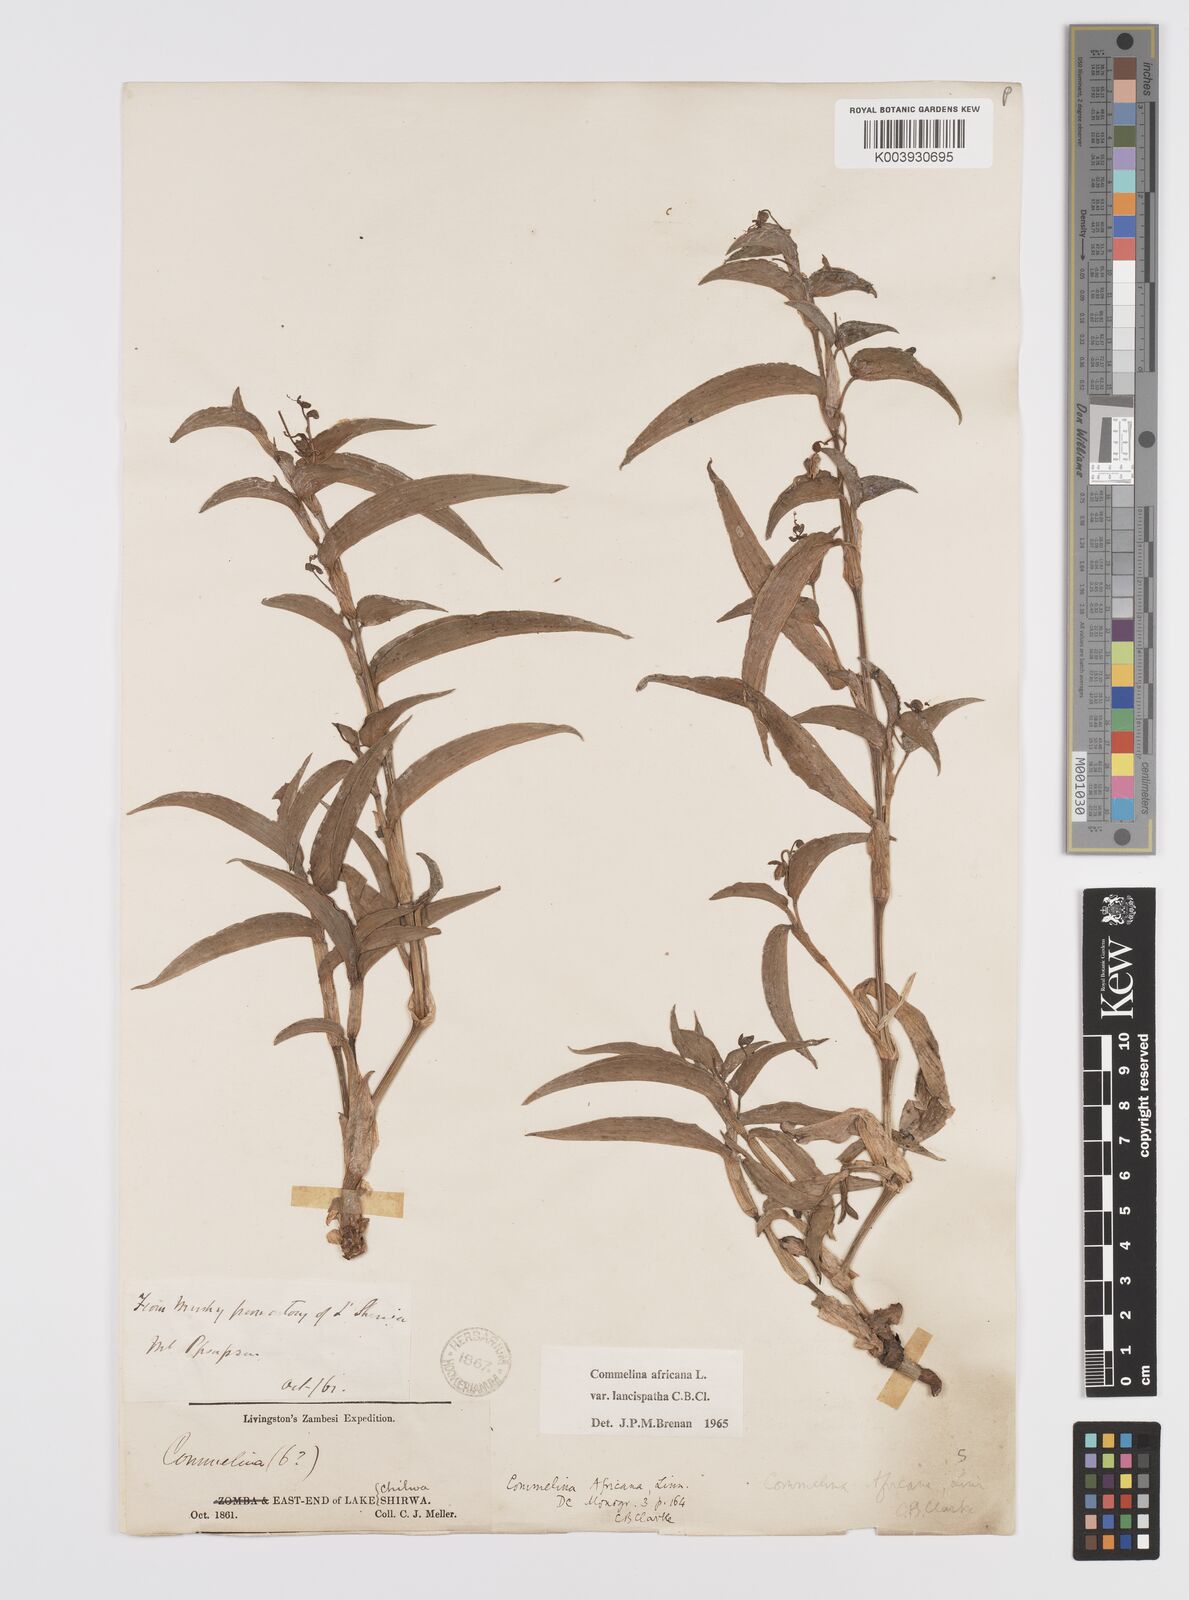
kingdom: Plantae
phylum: Tracheophyta
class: Liliopsida
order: Commelinales
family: Commelinaceae
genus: Commelina
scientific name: Commelina africana
